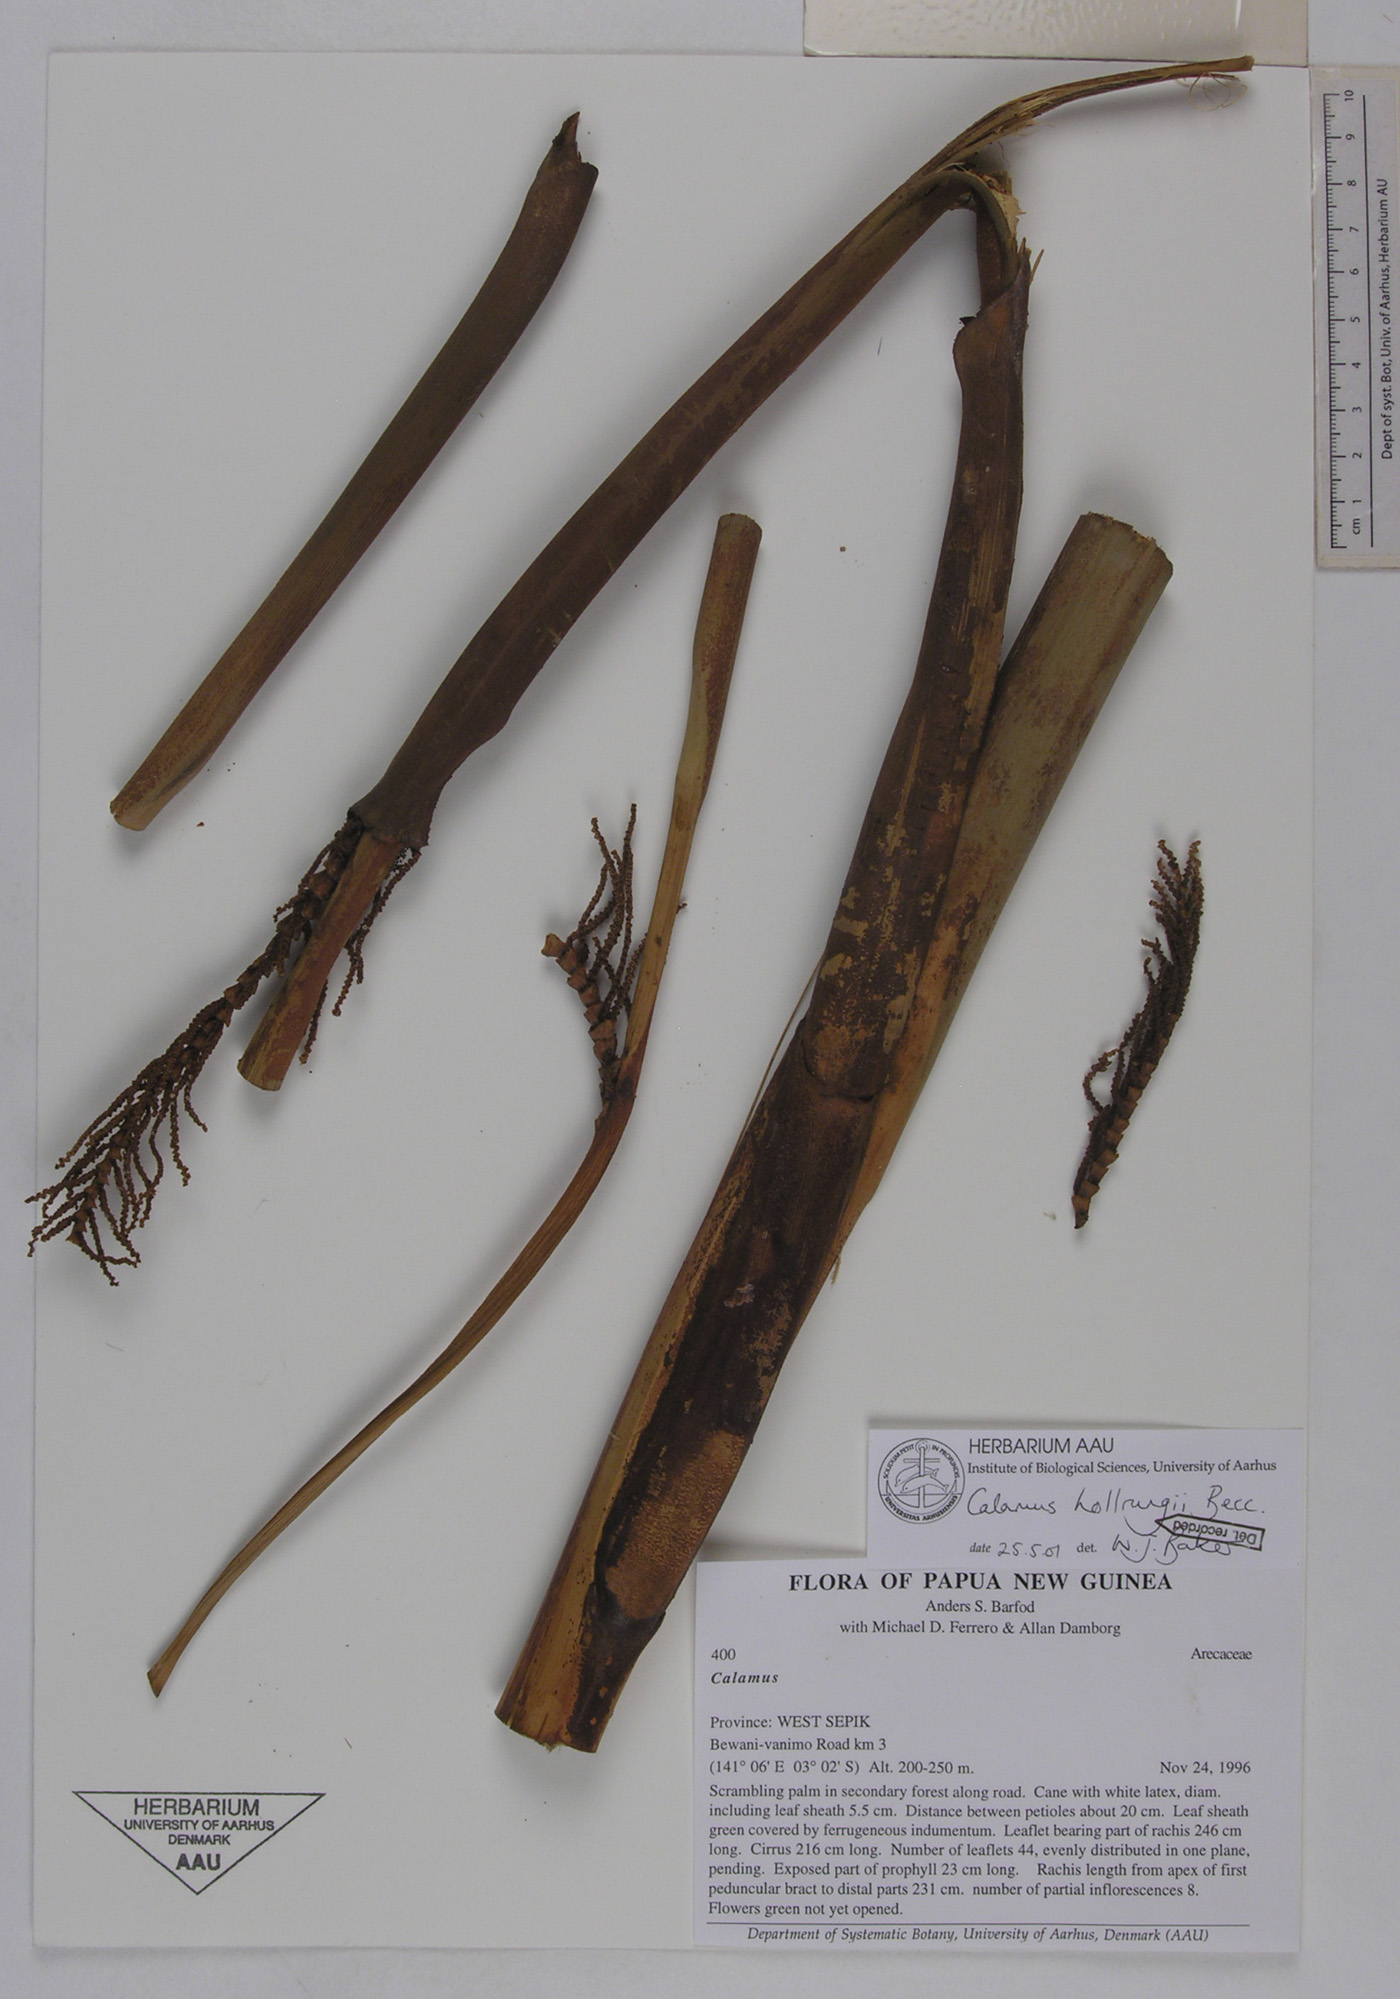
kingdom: Plantae
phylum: Tracheophyta
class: Liliopsida
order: Arecales
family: Arecaceae
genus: Calamus
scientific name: Calamus aruensis
